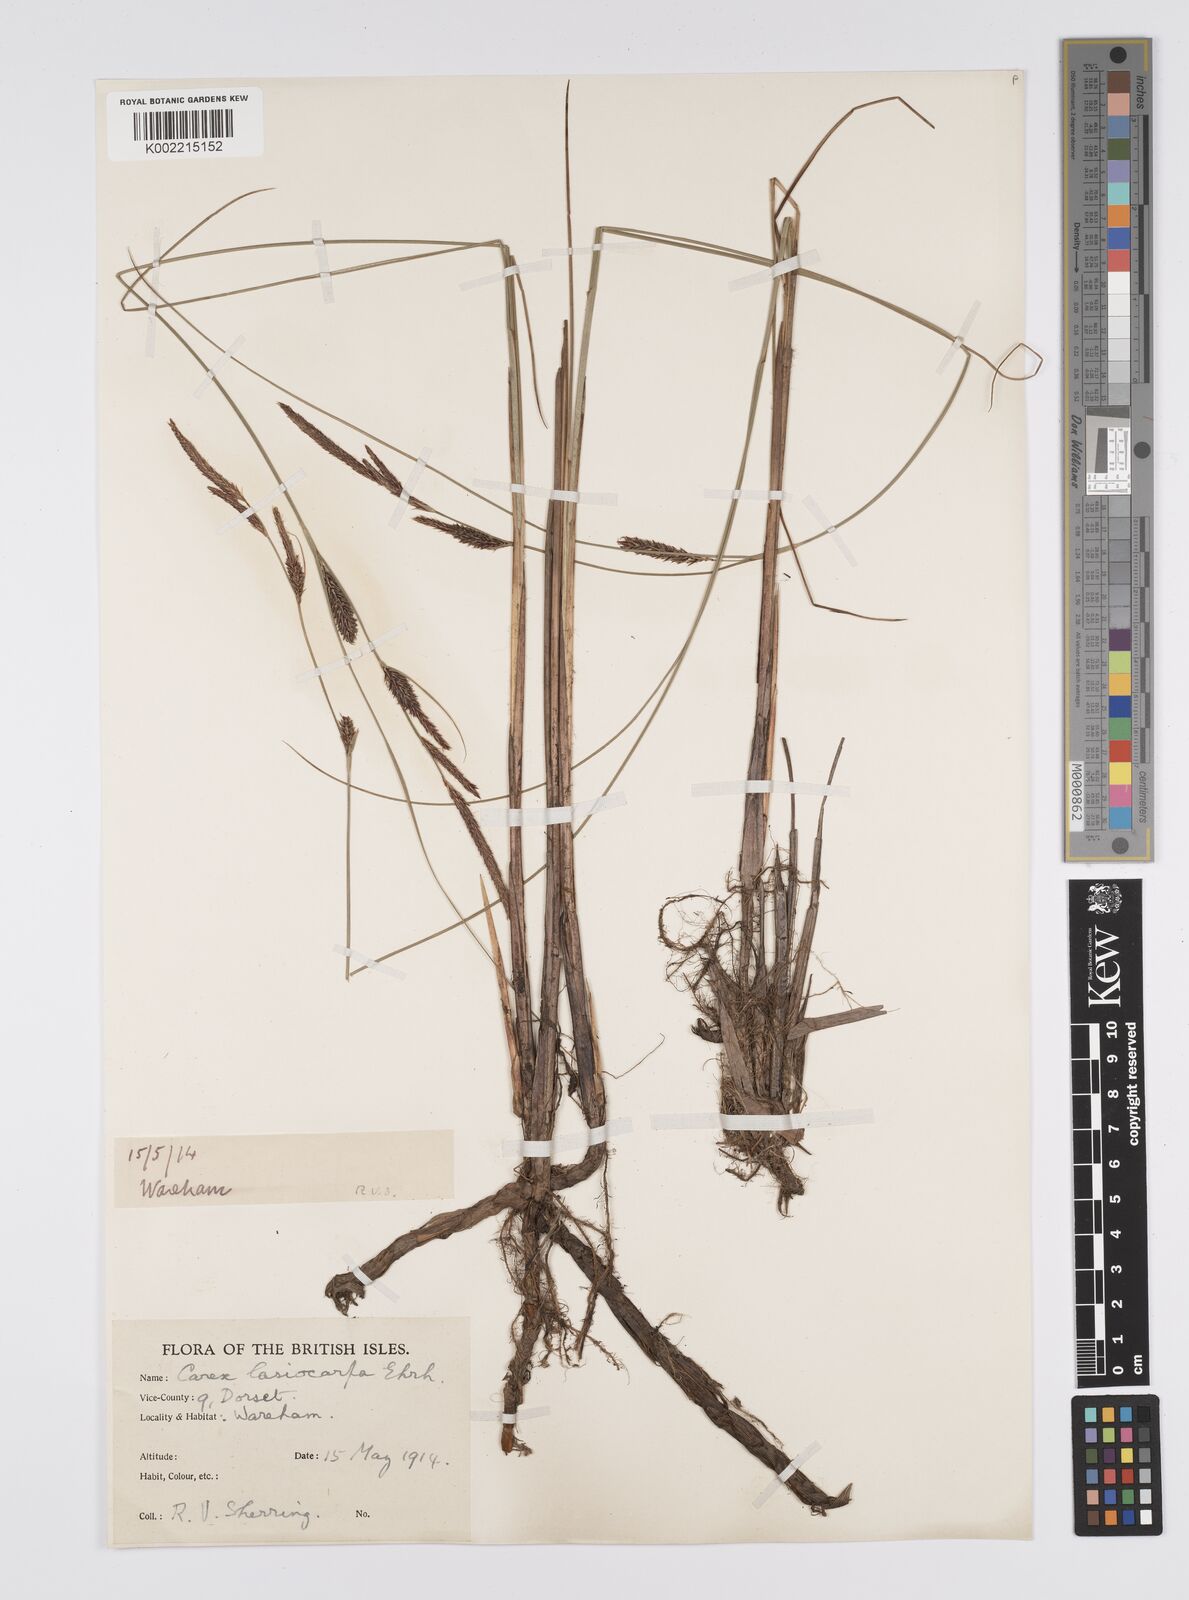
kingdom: Plantae
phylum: Tracheophyta
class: Liliopsida
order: Poales
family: Cyperaceae
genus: Carex
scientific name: Carex lasiocarpa
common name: Slender sedge
